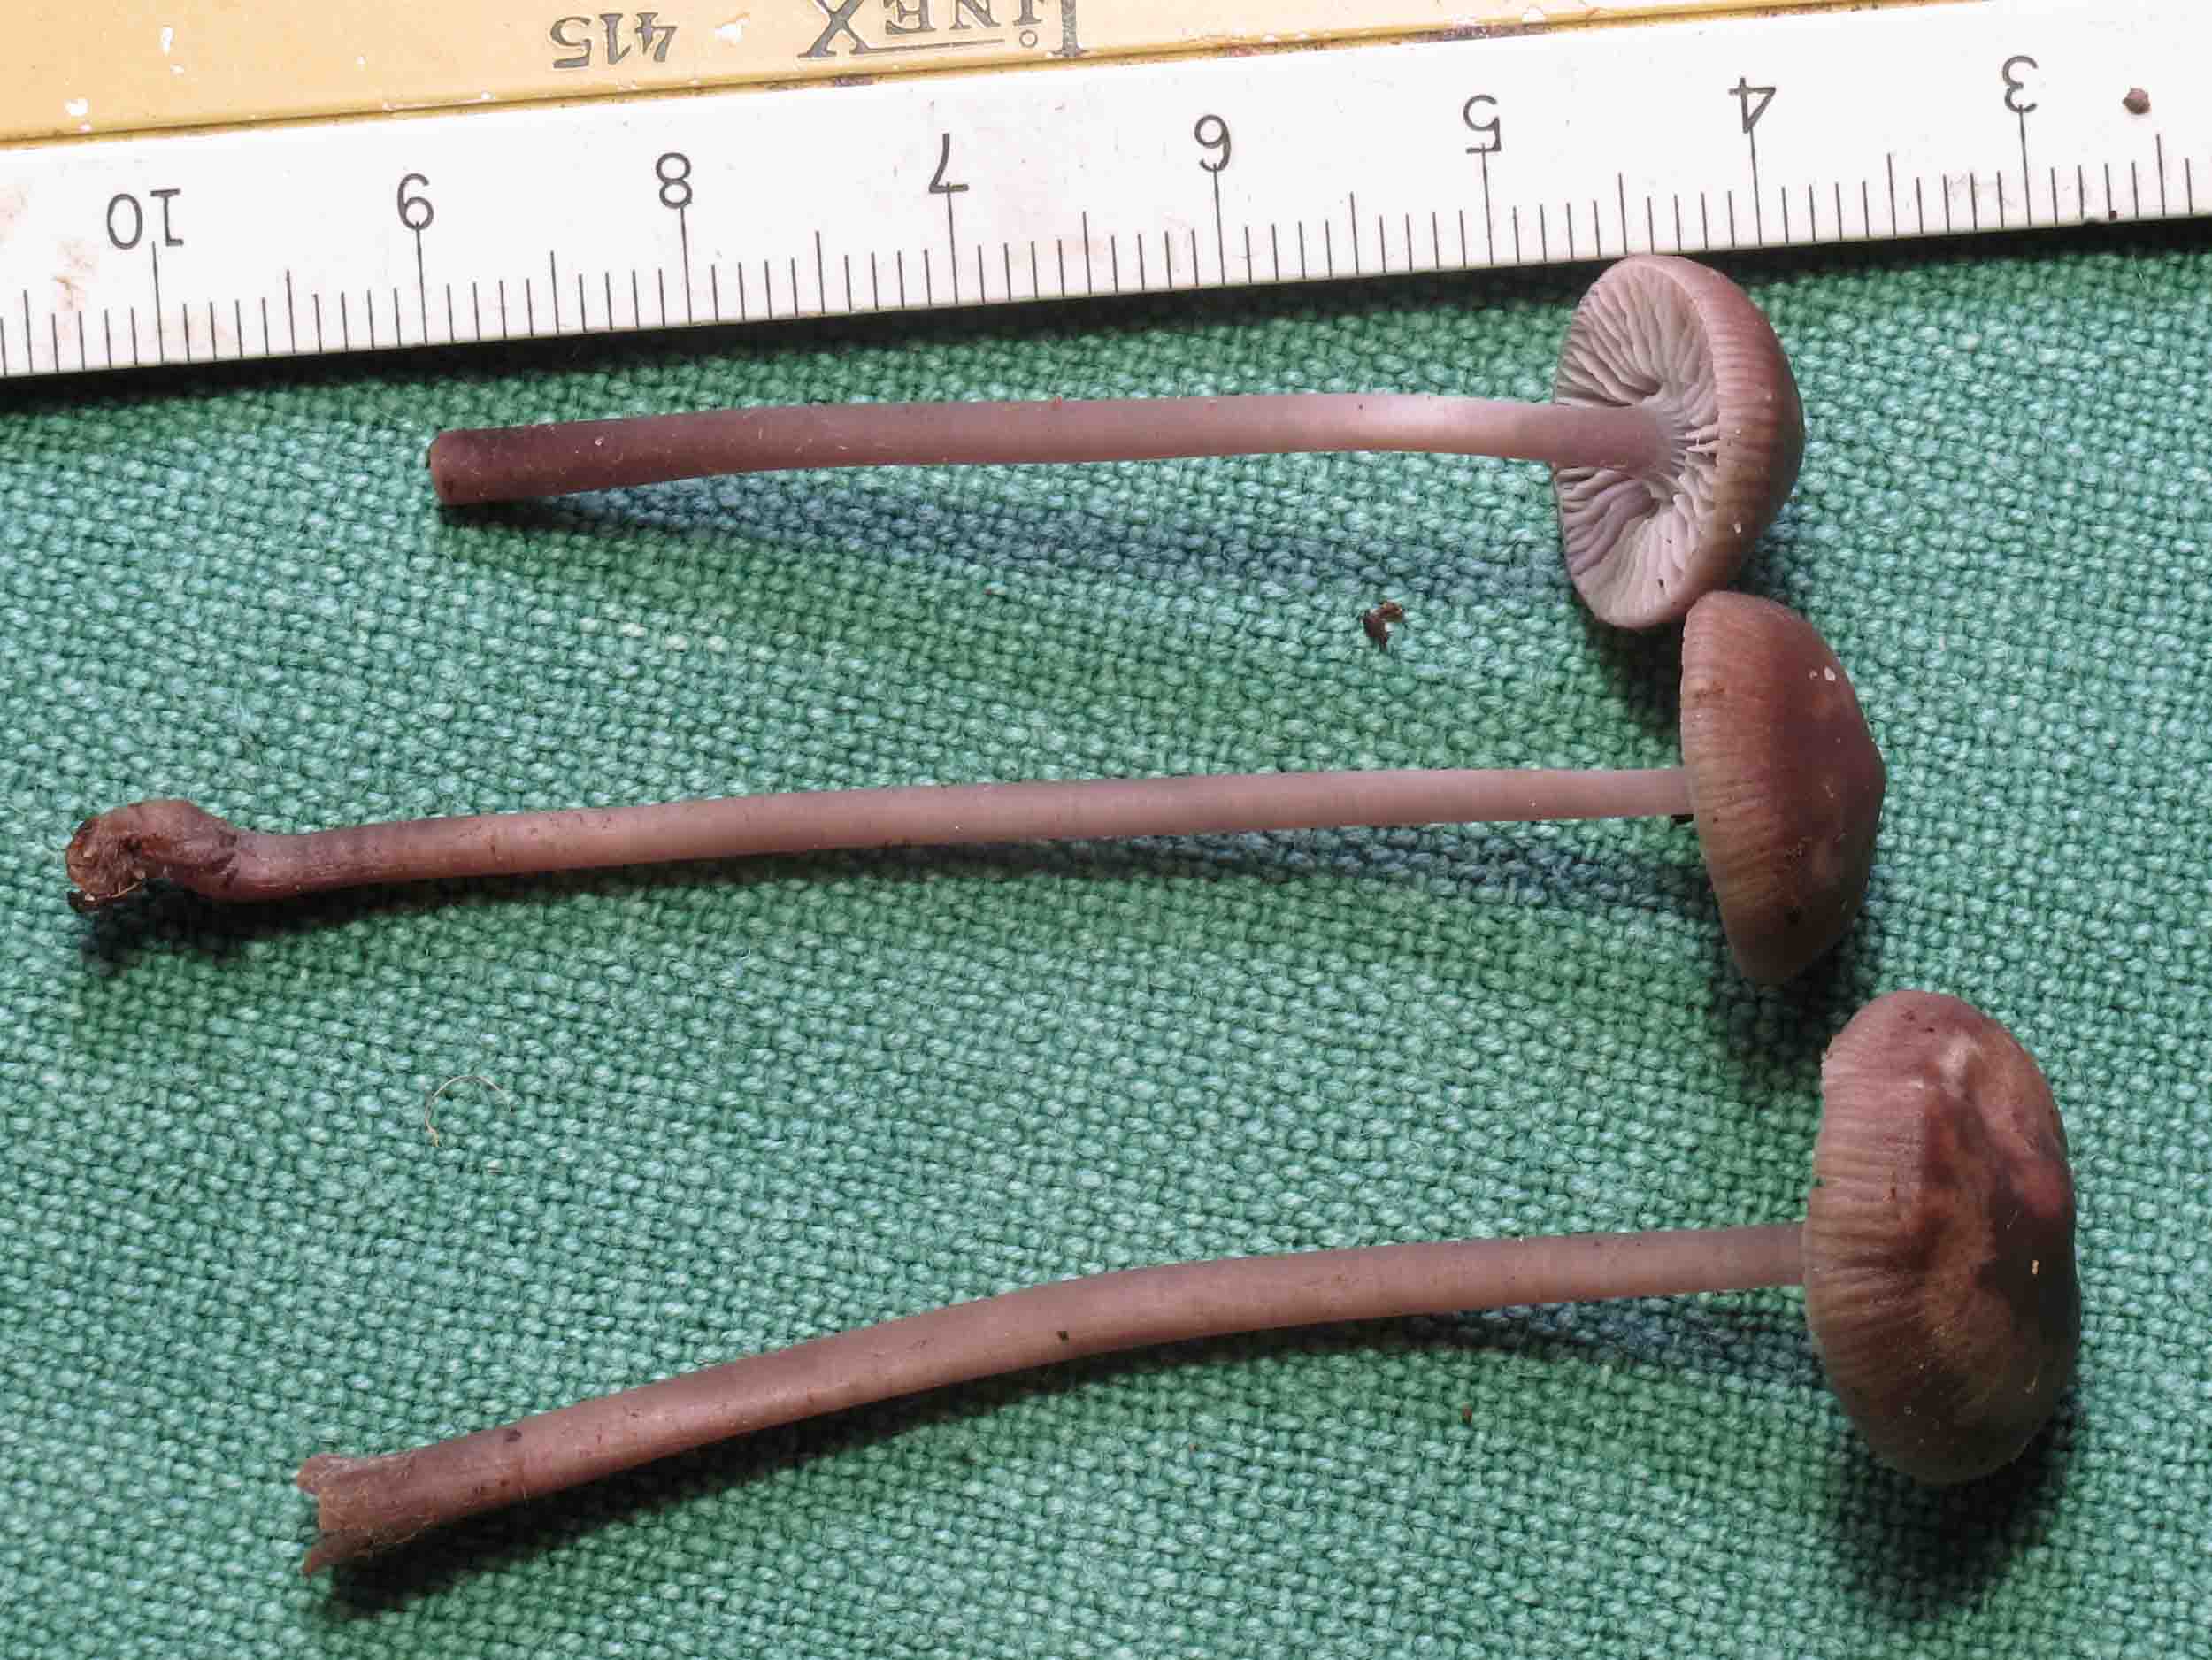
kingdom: Fungi
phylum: Basidiomycota
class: Agaricomycetes
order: Agaricales
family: Mycenaceae
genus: Mycena
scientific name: Mycena
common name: huesvamp
